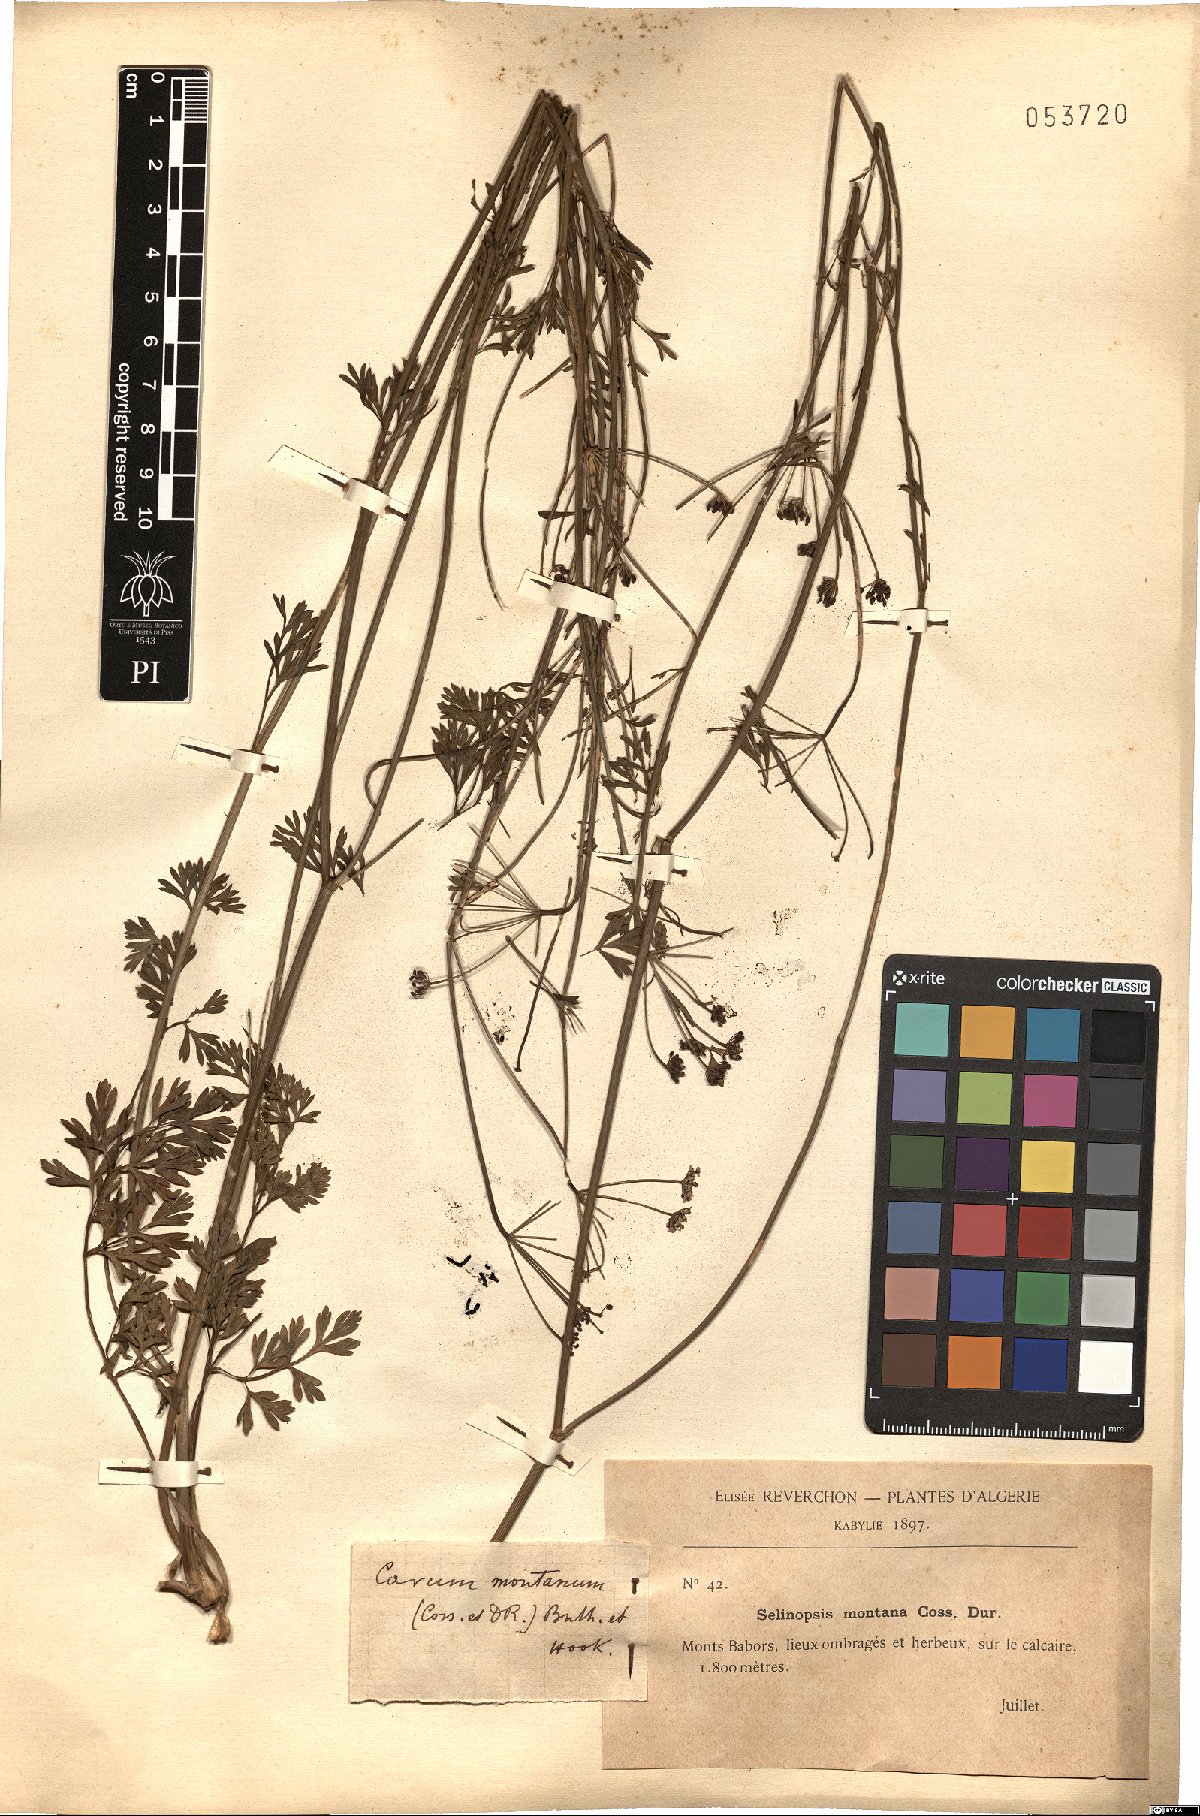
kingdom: Plantae
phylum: Tracheophyta
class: Magnoliopsida
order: Apiales
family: Apiaceae
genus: Selinopsis
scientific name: Selinopsis montana
